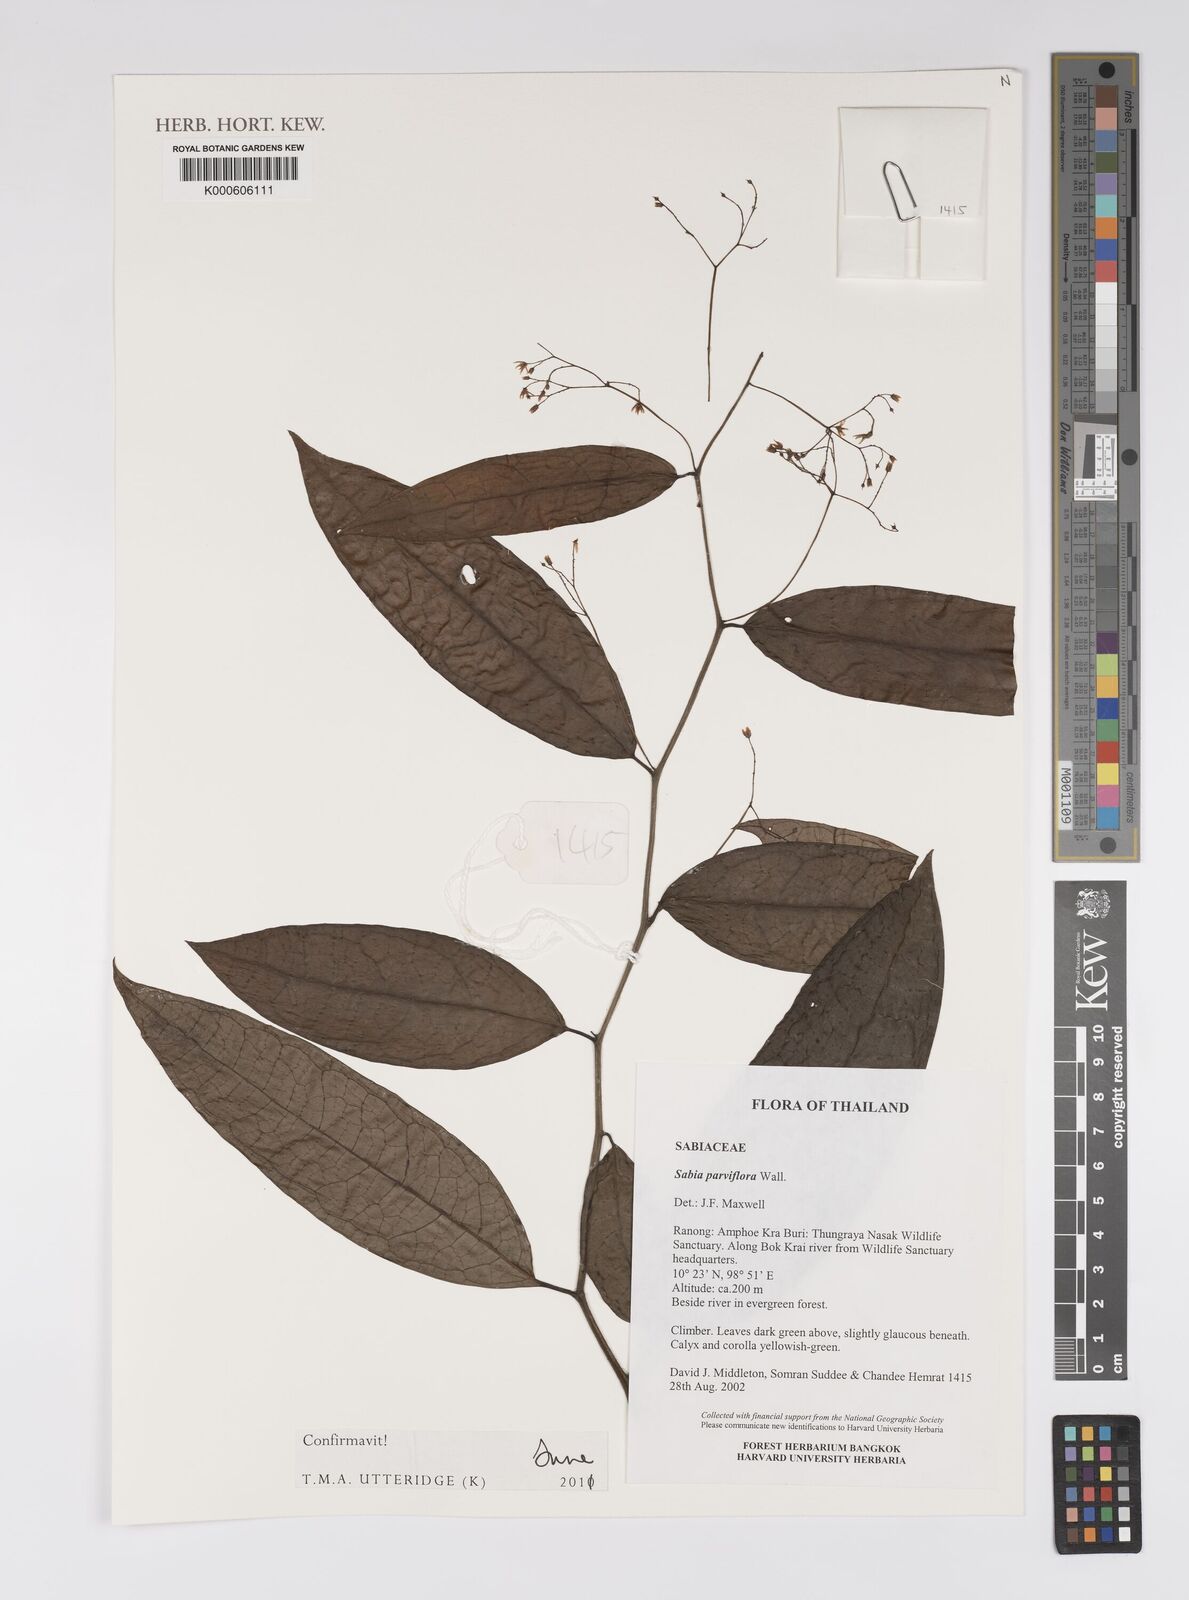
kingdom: Plantae
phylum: Tracheophyta
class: Magnoliopsida
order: Proteales
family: Sabiaceae
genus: Sabia
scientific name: Sabia parviflora
